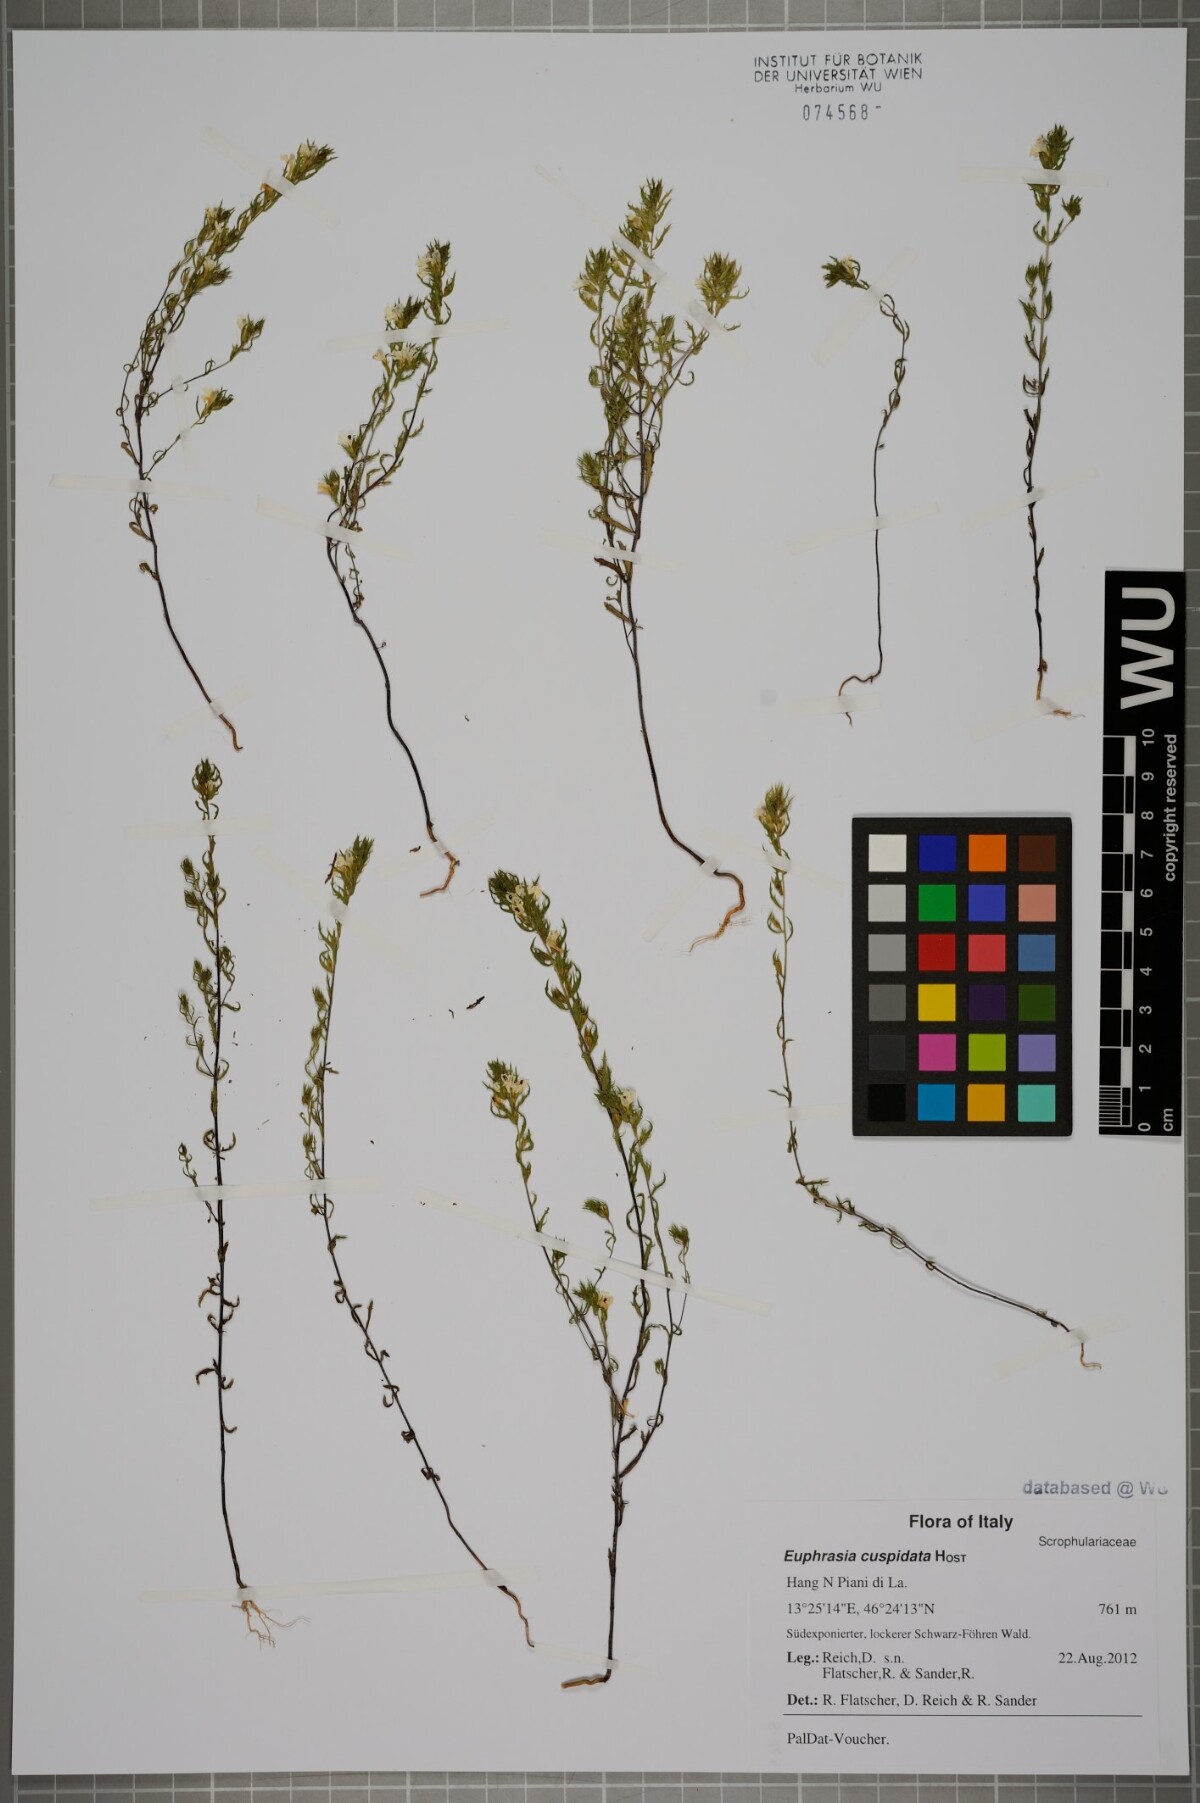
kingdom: Plantae
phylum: Tracheophyta
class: Magnoliopsida
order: Lamiales
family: Orobanchaceae
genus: Euphrasia
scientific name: Euphrasia cuspidata
